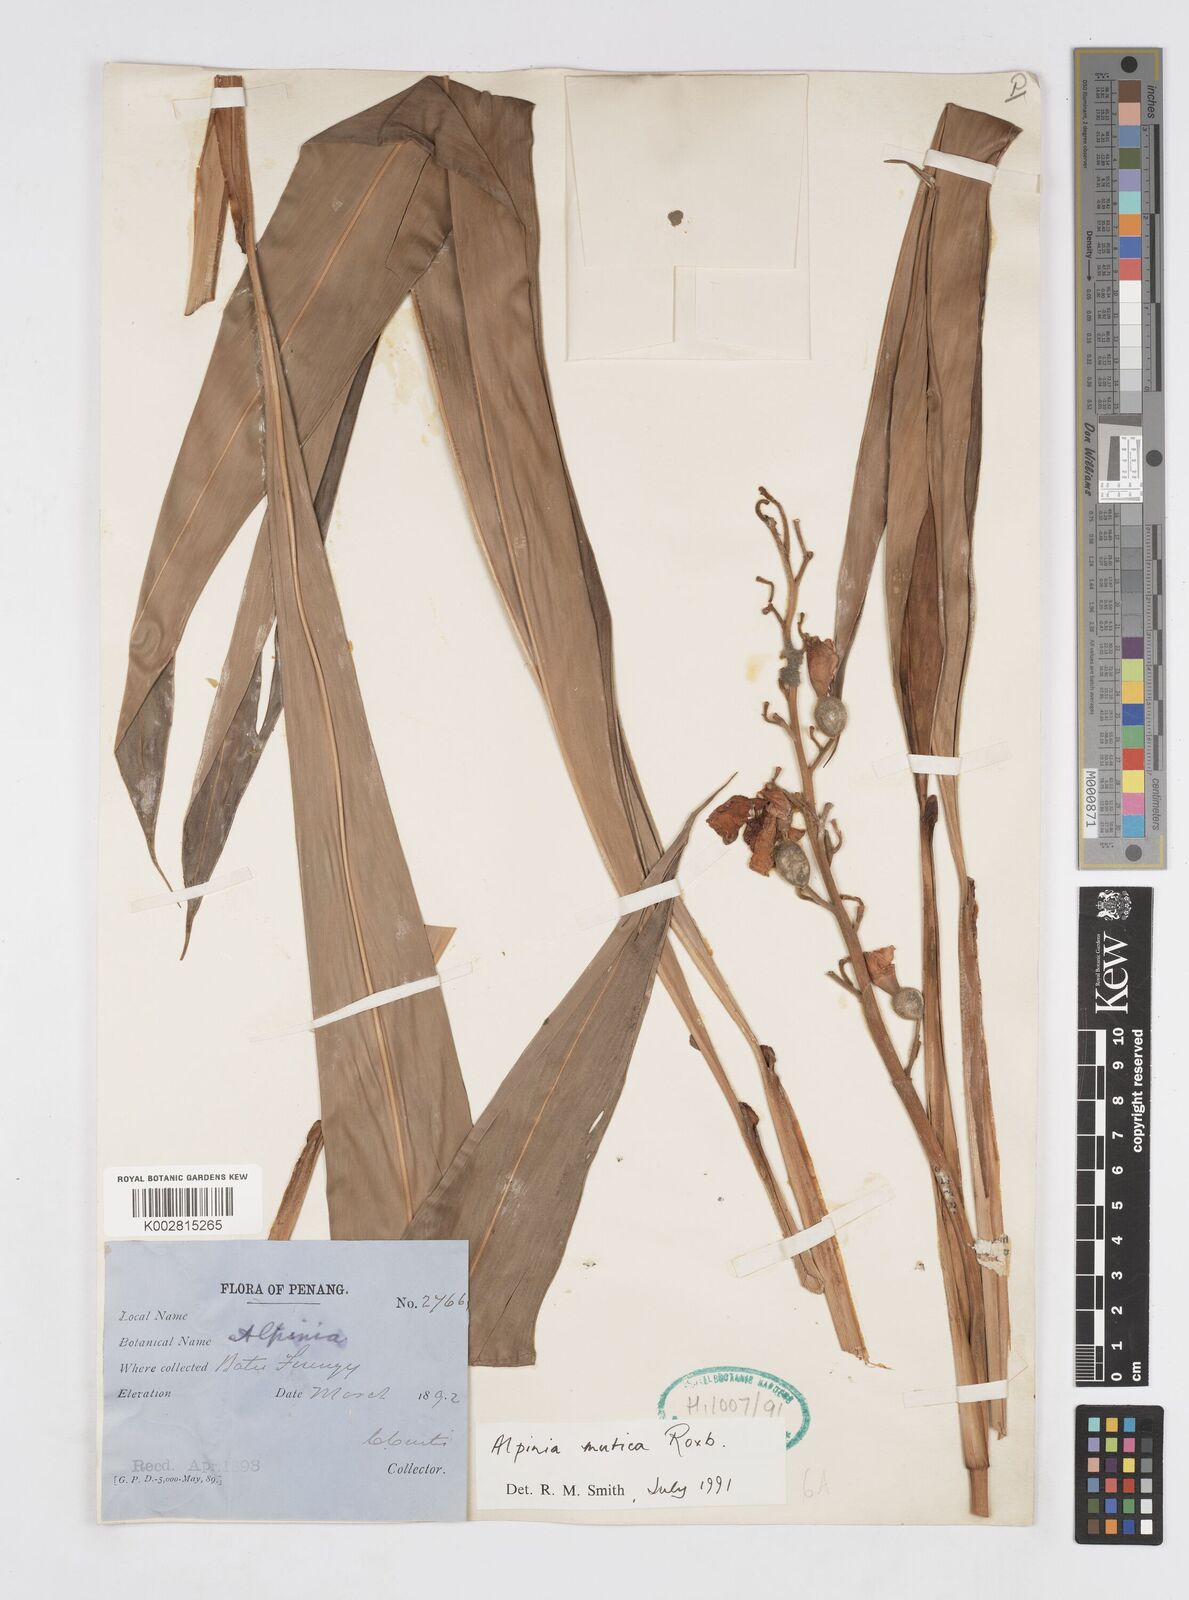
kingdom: Plantae
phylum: Tracheophyta
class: Liliopsida
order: Zingiberales
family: Zingiberaceae
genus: Alpinia
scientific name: Alpinia mutica
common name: Small shell ginger
